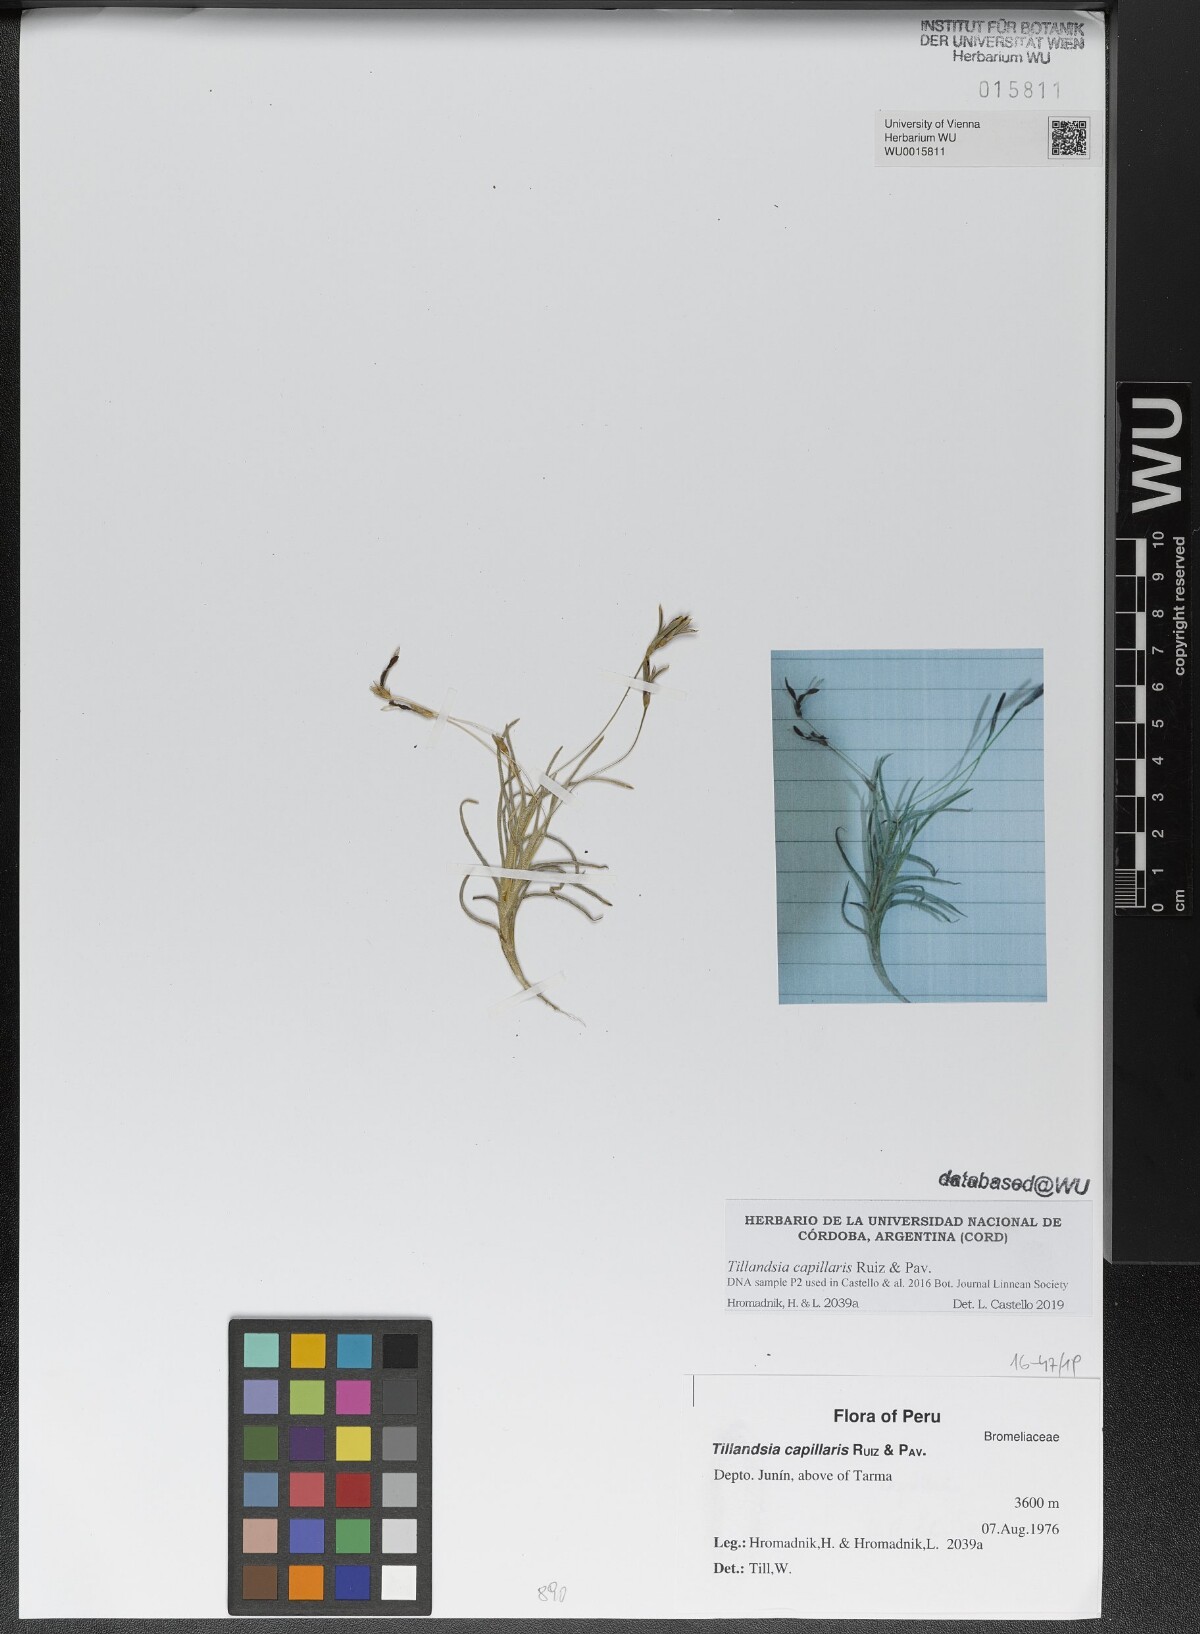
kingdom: Plantae
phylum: Tracheophyta
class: Liliopsida
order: Poales
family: Bromeliaceae
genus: Tillandsia
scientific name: Tillandsia capillaris
